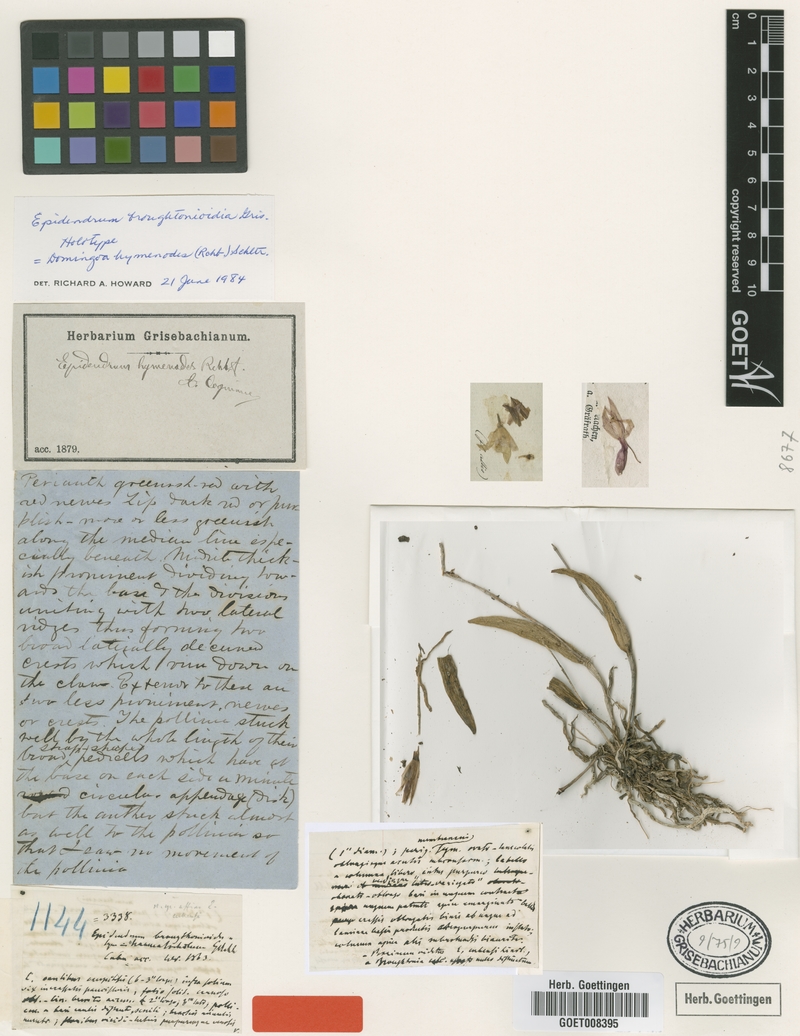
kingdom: Plantae
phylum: Tracheophyta
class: Liliopsida
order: Asparagales
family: Orchidaceae
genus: Domingoa
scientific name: Domingoa haematochila
